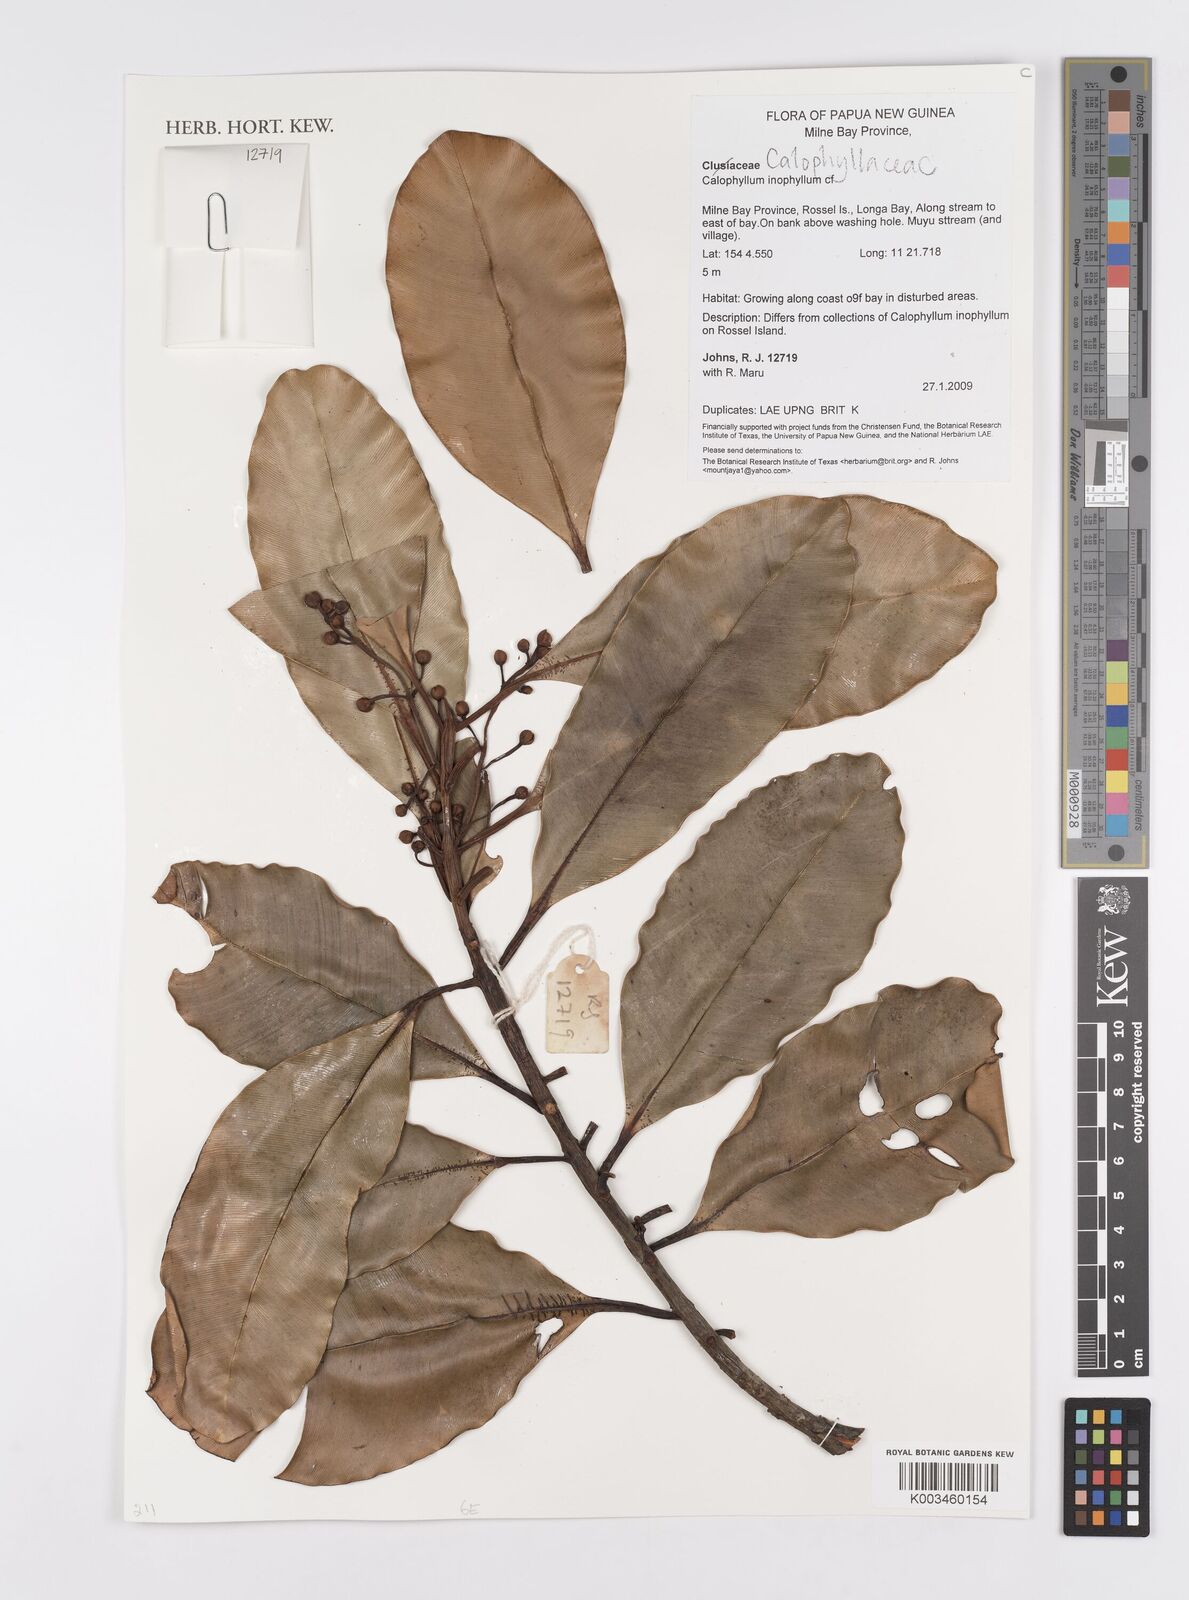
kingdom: Plantae
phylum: Tracheophyta
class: Magnoliopsida
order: Malpighiales
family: Calophyllaceae
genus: Calophyllum
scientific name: Calophyllum inophyllum
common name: Alexandrian laurel
